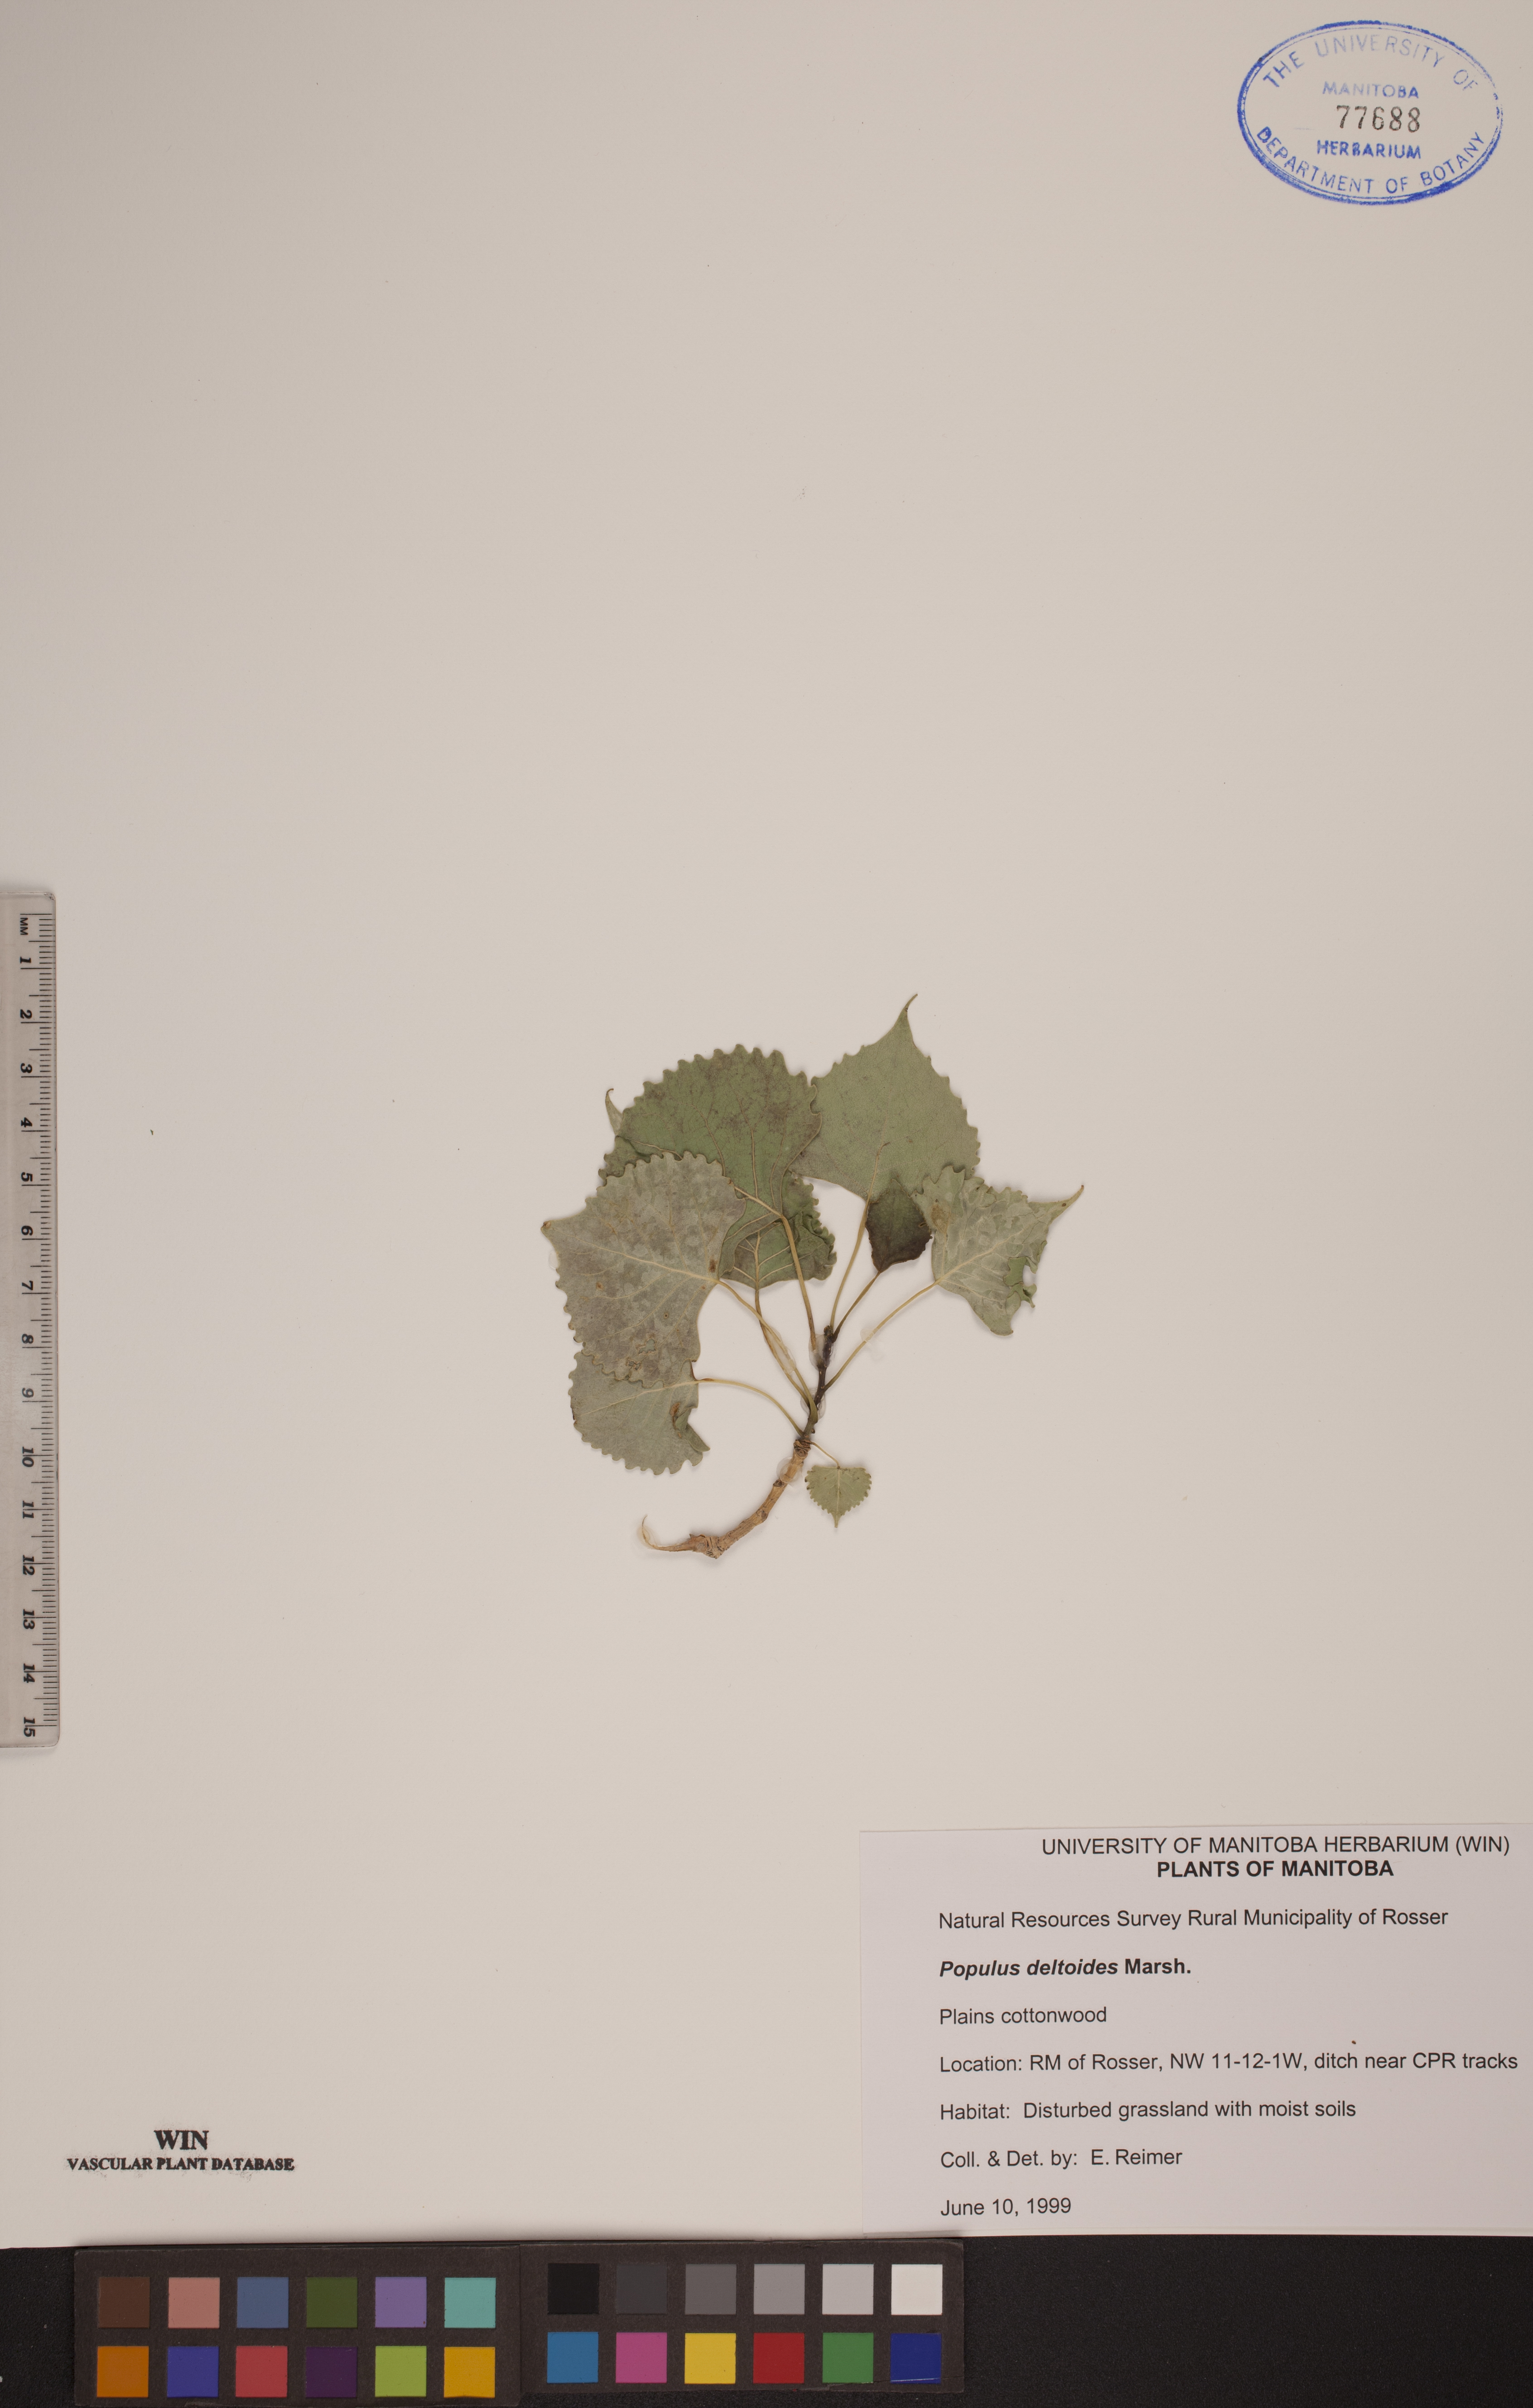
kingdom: Plantae
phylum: Tracheophyta
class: Magnoliopsida
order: Malpighiales
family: Salicaceae
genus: Populus
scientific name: Populus deltoides
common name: Eastern cottonwood
